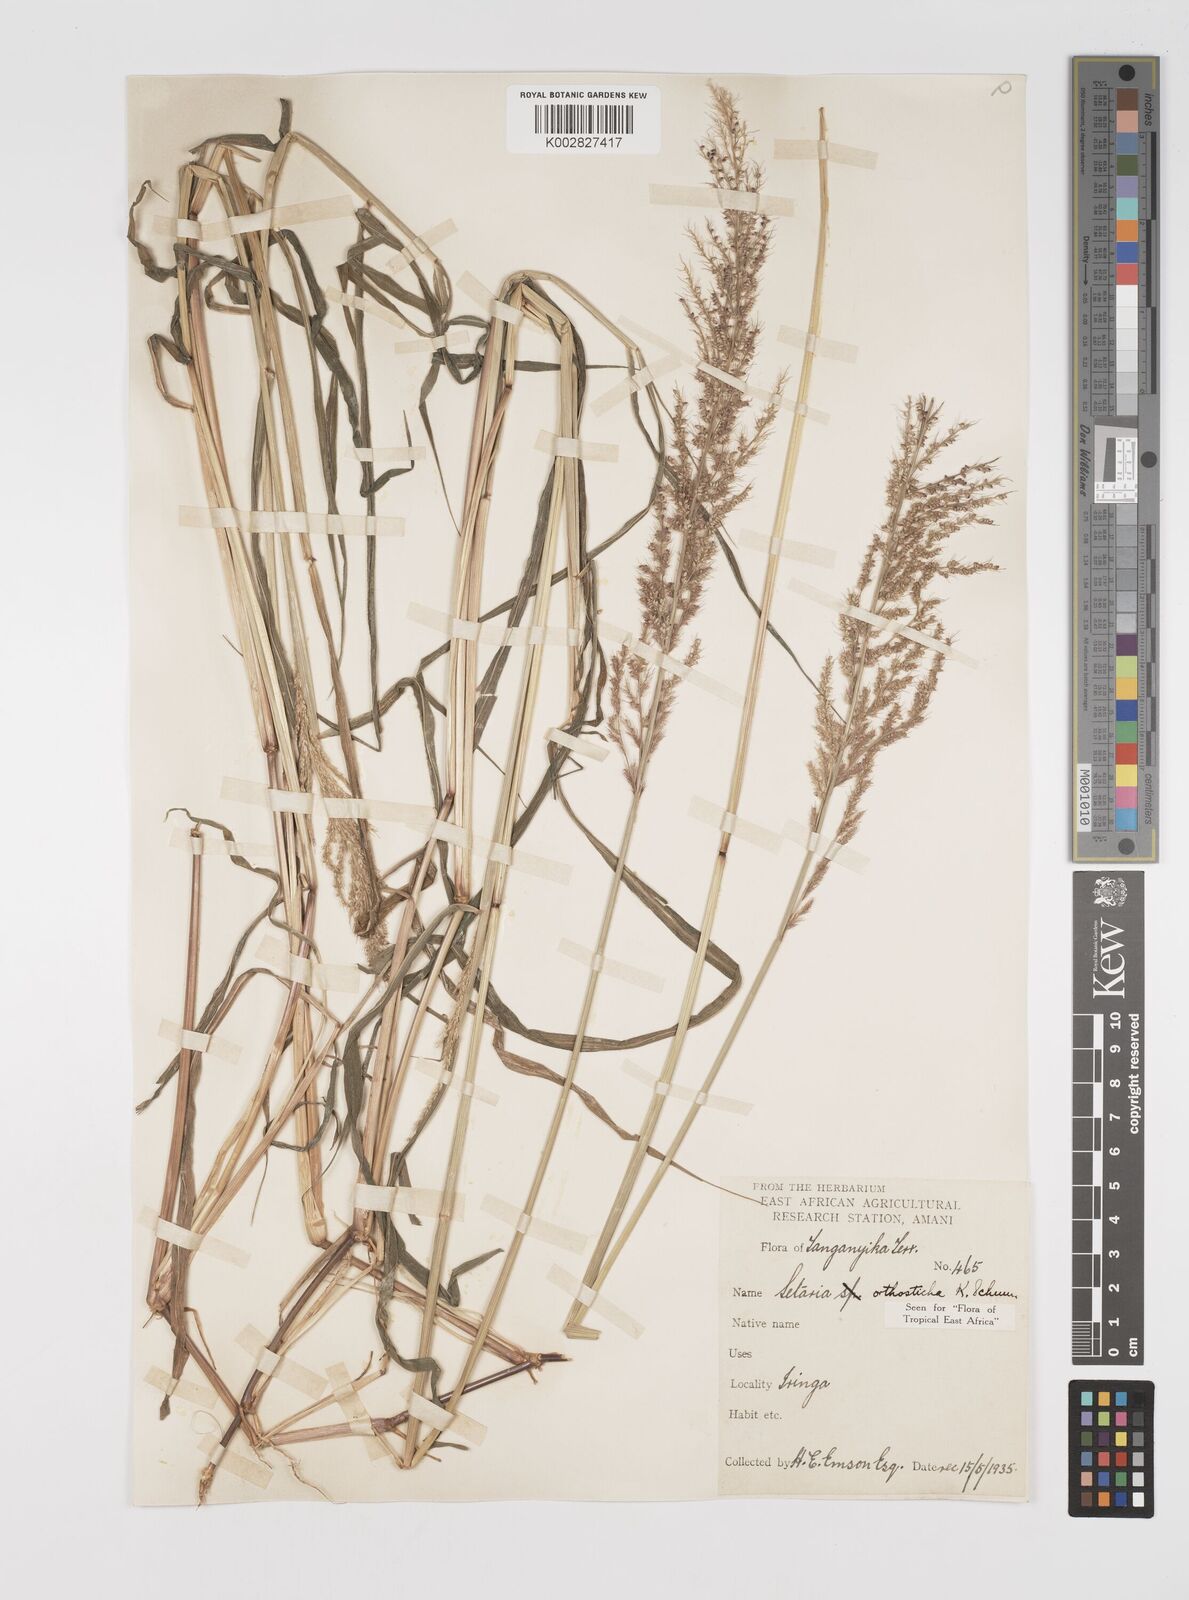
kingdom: Plantae
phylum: Tracheophyta
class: Liliopsida
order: Poales
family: Poaceae
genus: Setaria
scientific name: Setaria orthosticha
